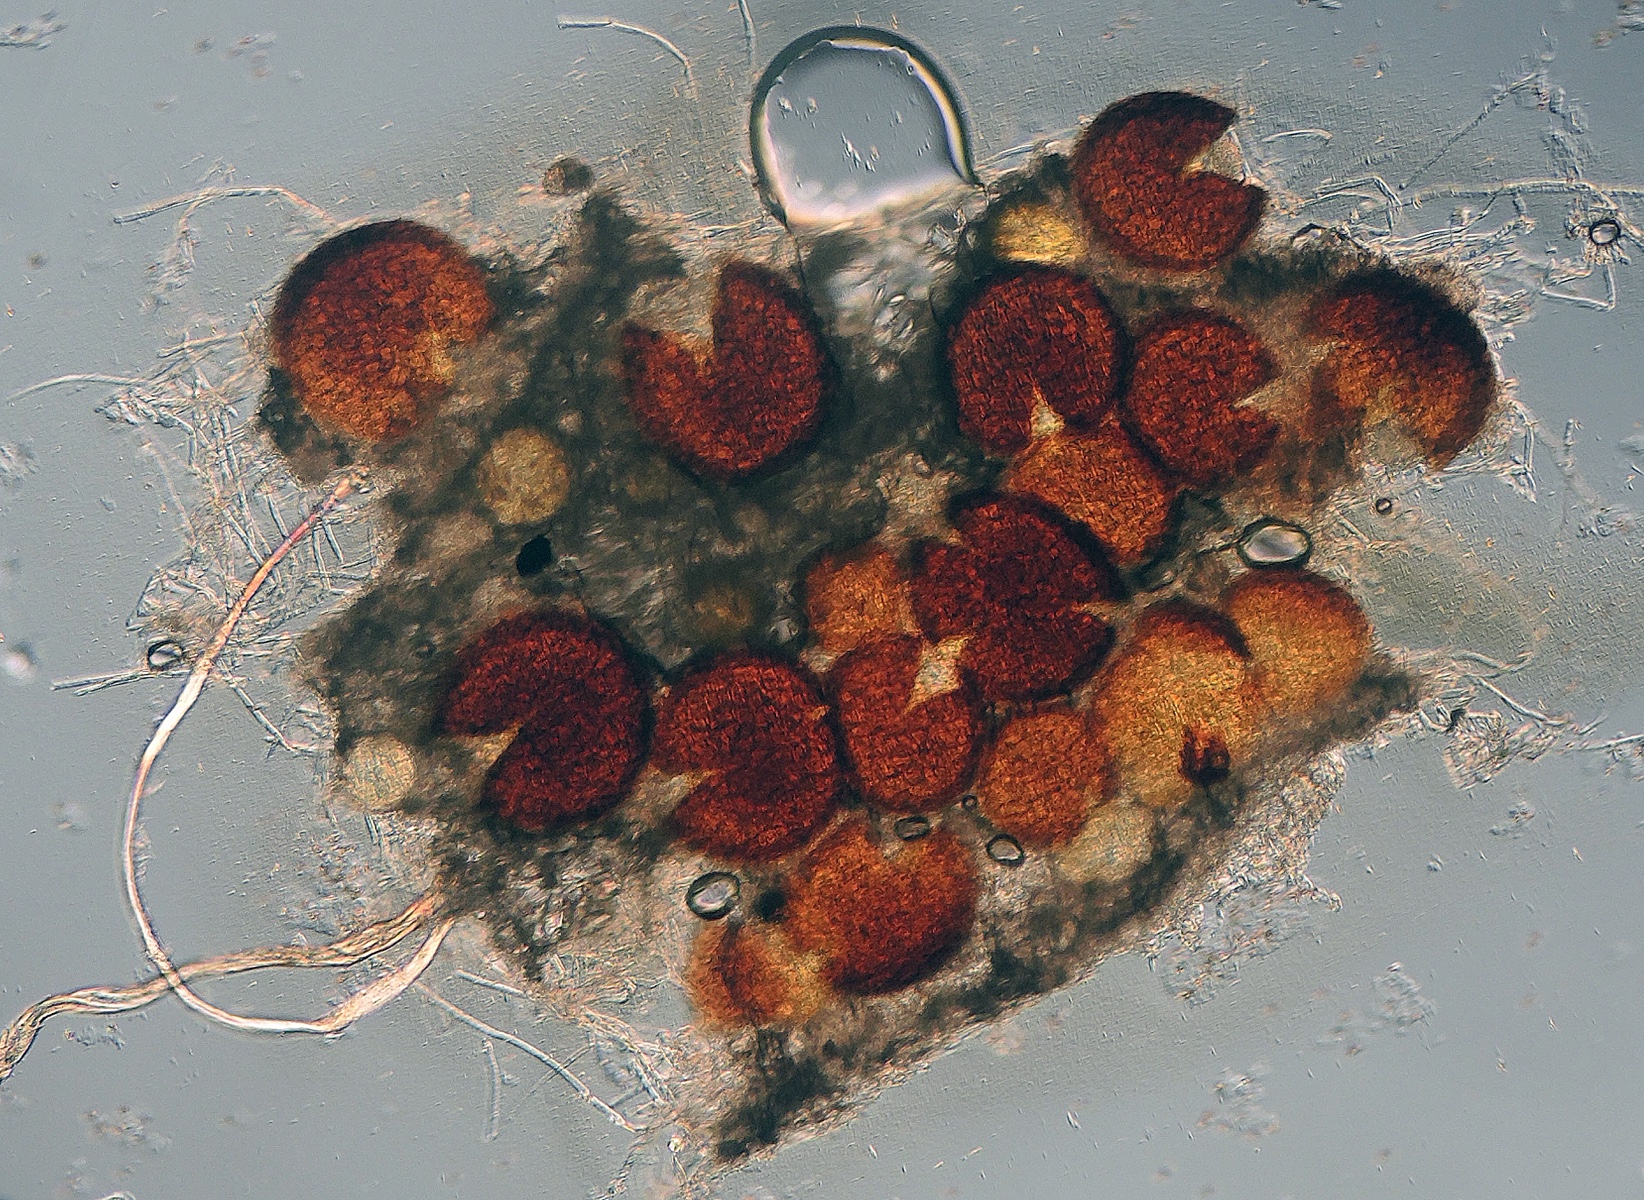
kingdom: Fungi
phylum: Ascomycota
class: Leotiomycetes
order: Helotiales
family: Erysiphaceae
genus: Erysiphe
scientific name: Erysiphe polygoni
